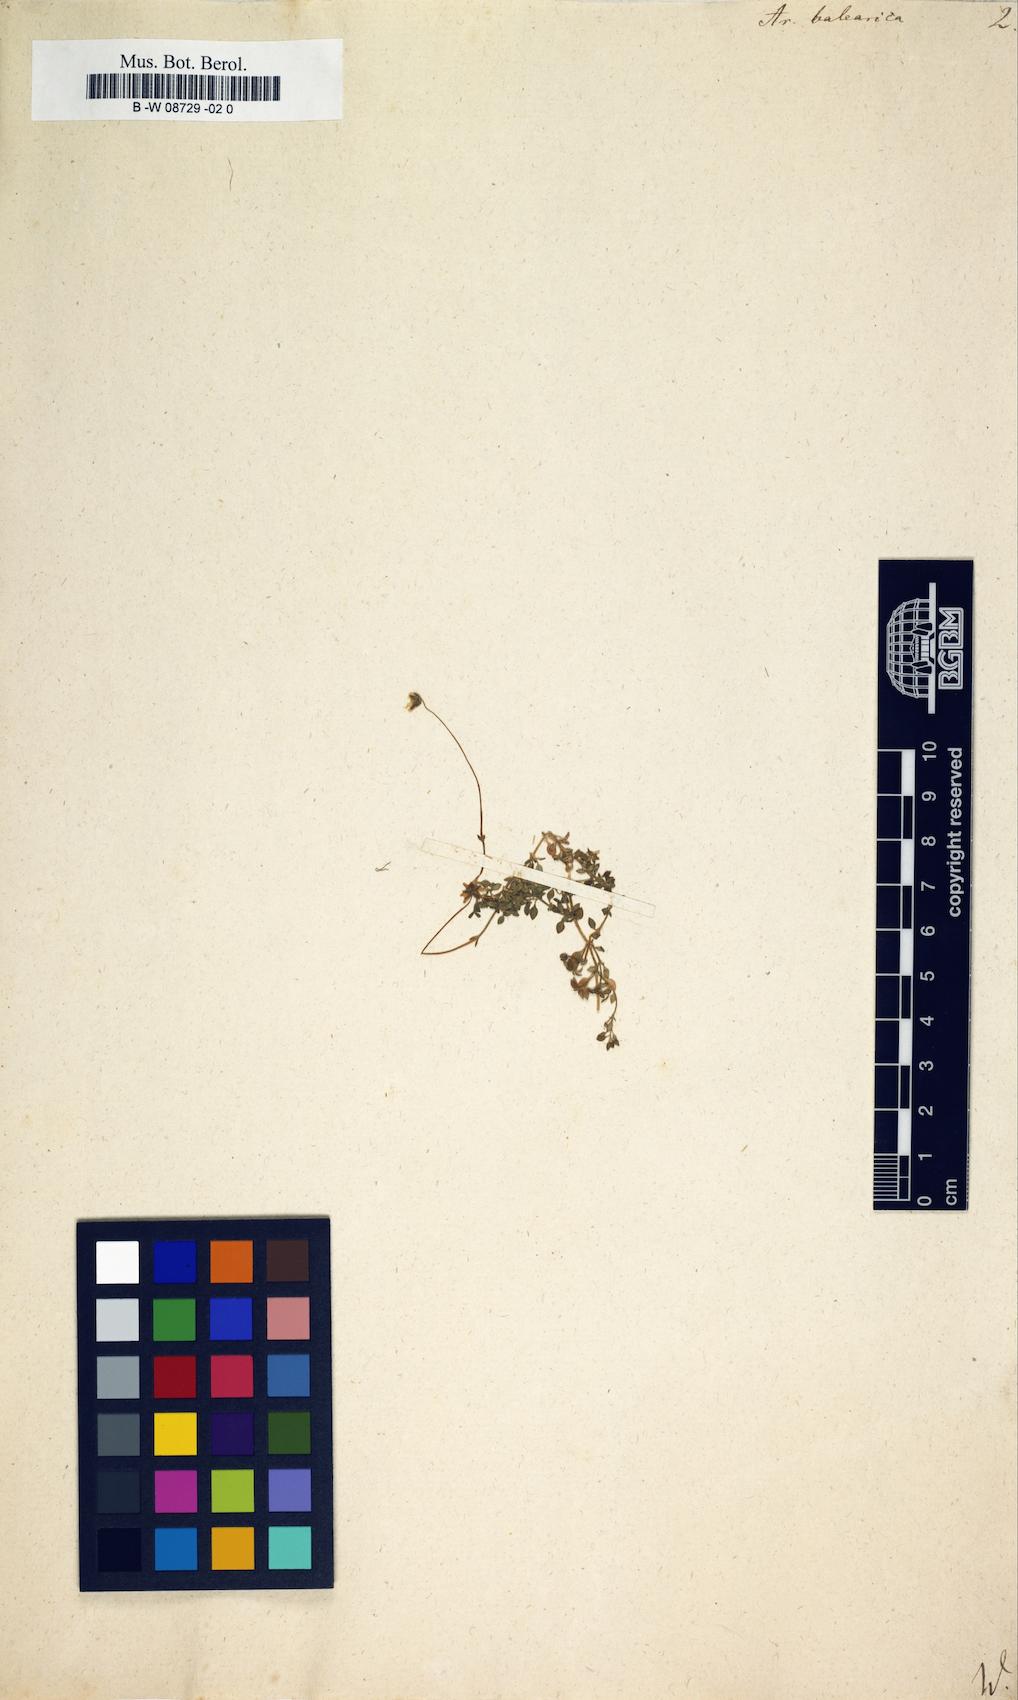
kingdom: Plantae
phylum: Tracheophyta
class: Magnoliopsida
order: Caryophyllales
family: Caryophyllaceae
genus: Arenaria
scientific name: Arenaria balearica
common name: Mossy sandwort
